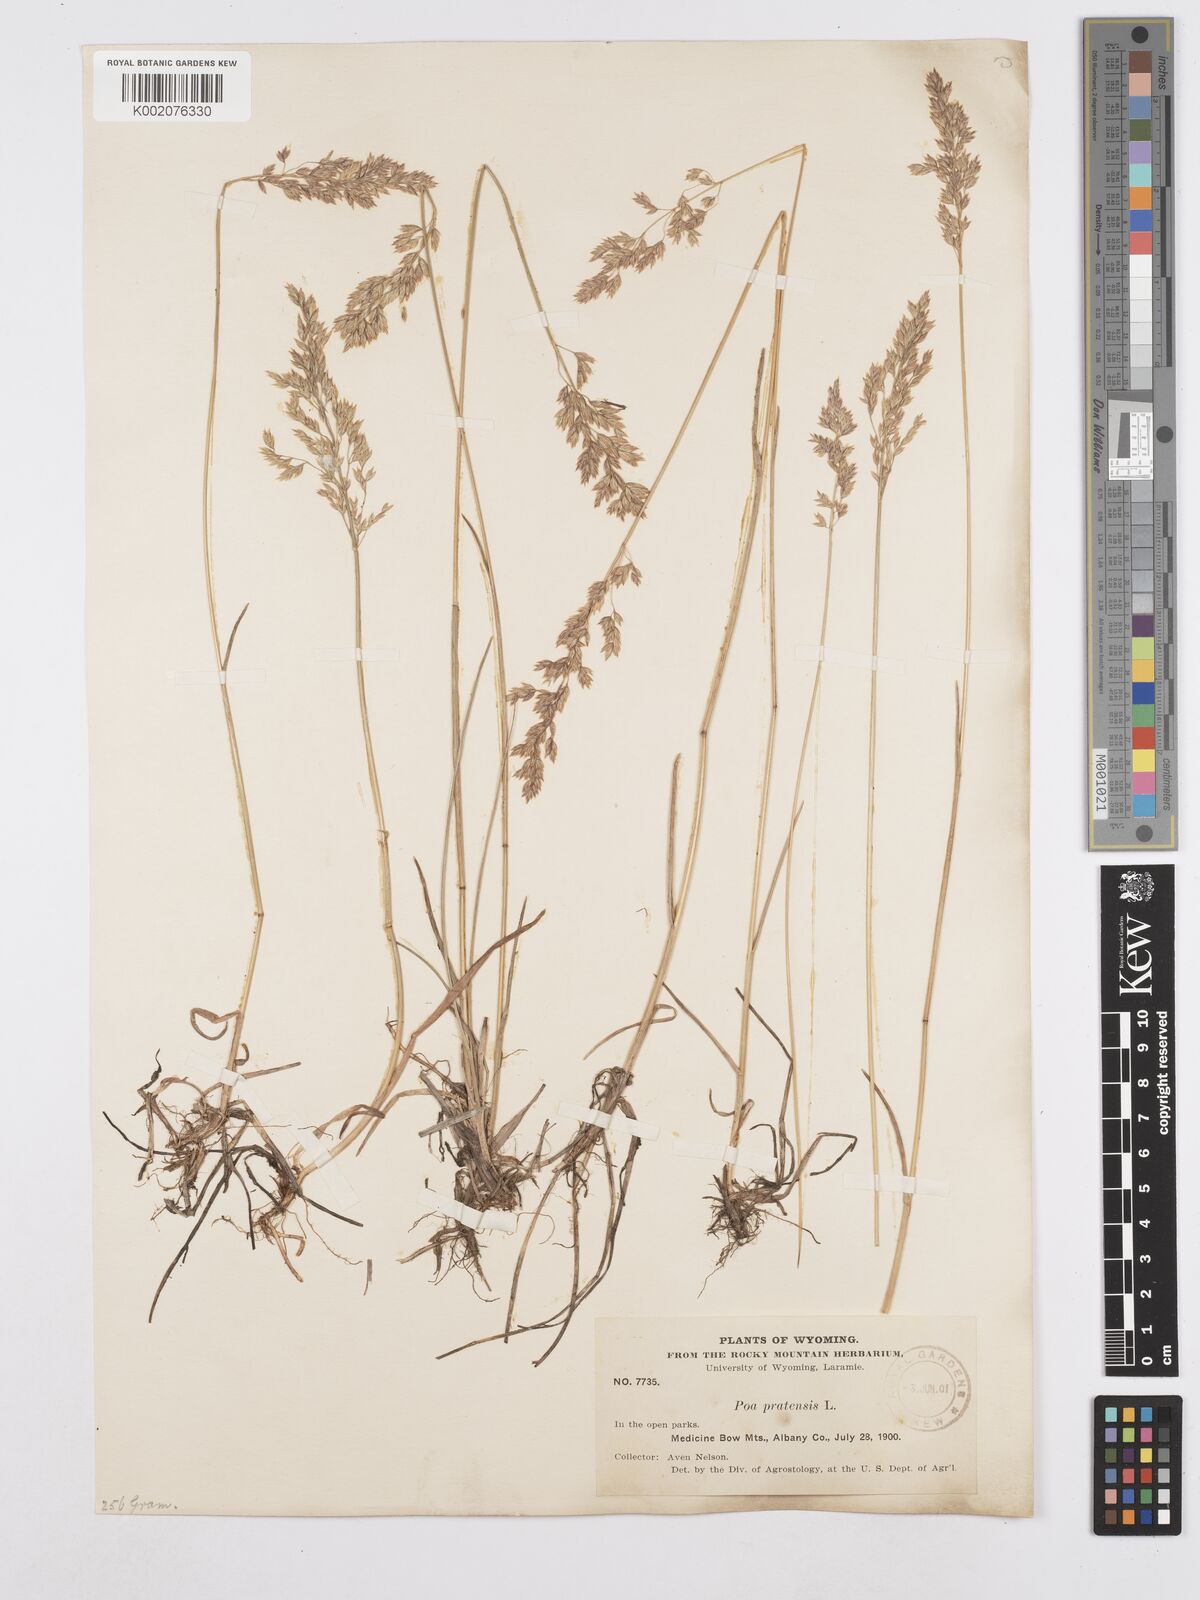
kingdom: Plantae
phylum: Tracheophyta
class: Liliopsida
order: Poales
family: Poaceae
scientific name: Poaceae
